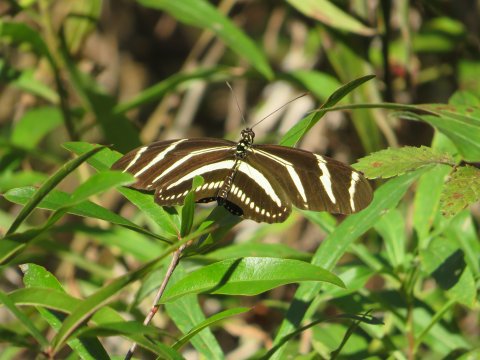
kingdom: Animalia
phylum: Arthropoda
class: Insecta
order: Lepidoptera
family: Nymphalidae
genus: Heliconius
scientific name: Heliconius charithonia
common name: Zebra Longwing
